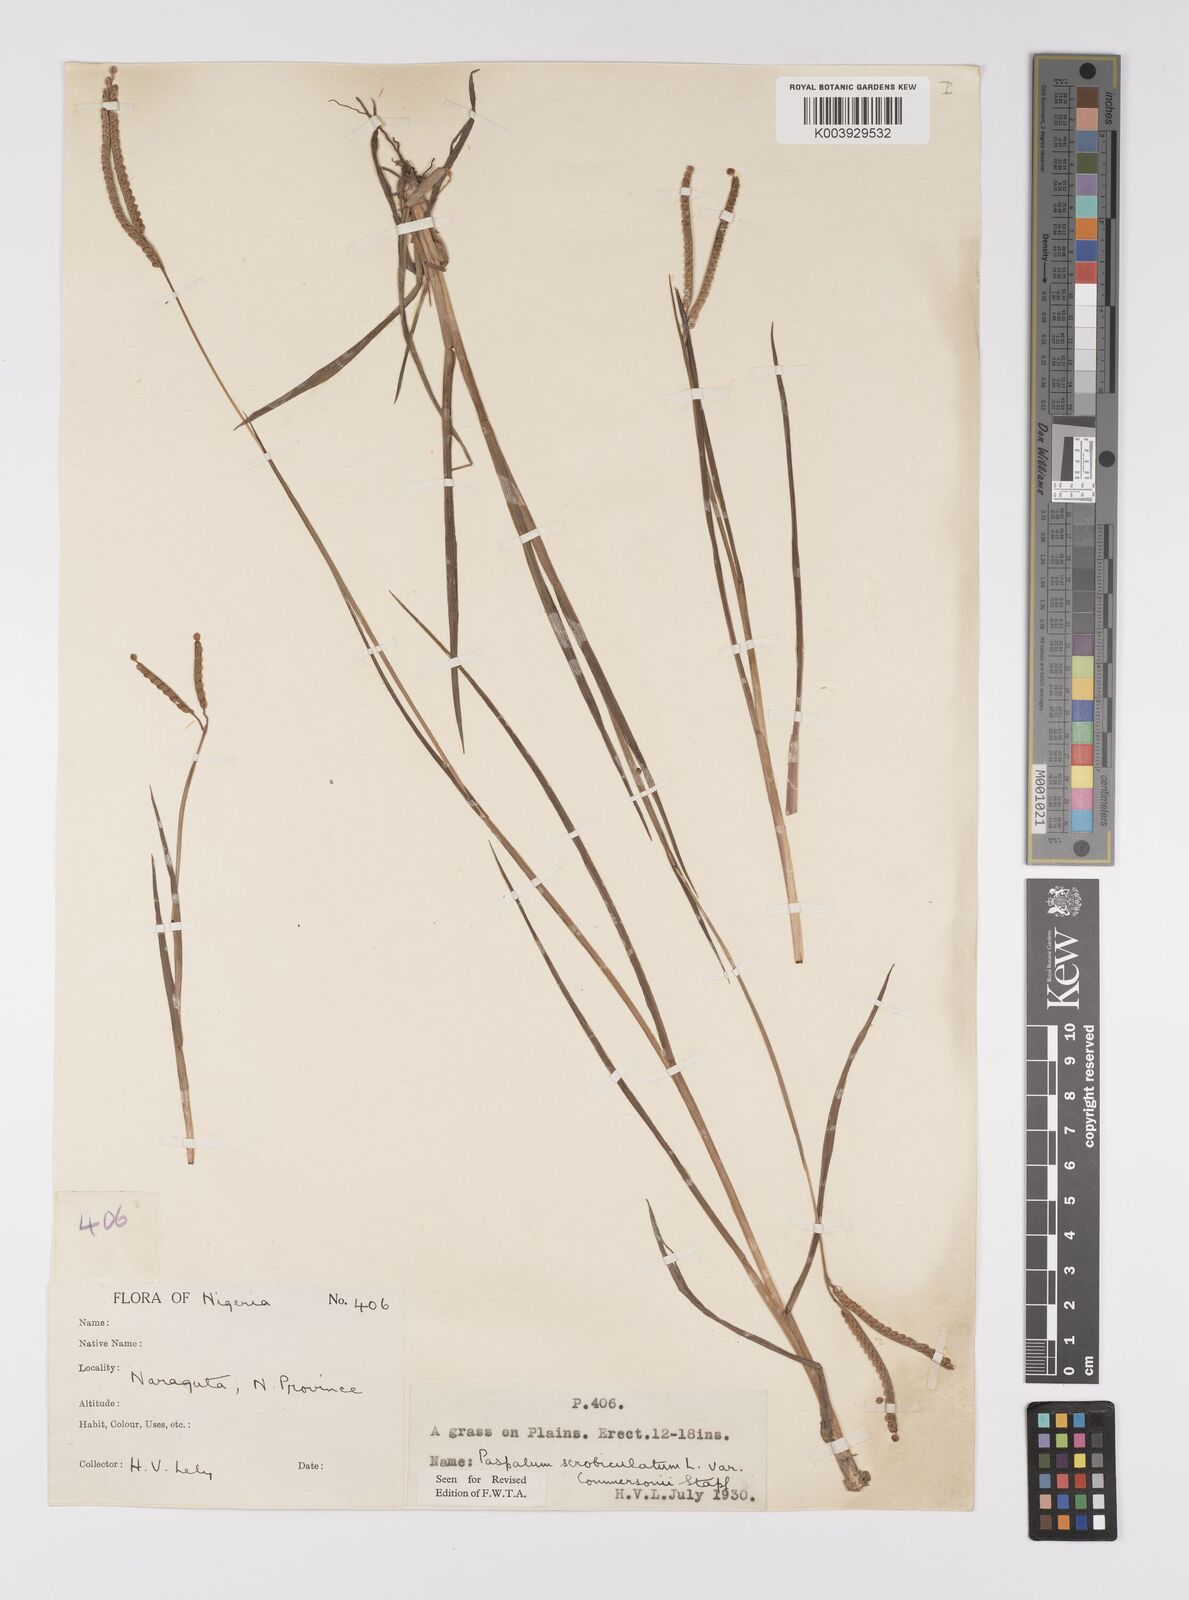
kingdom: Plantae
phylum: Tracheophyta
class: Liliopsida
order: Poales
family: Poaceae
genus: Paspalum
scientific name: Paspalum scrobiculatum
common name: Kodo millet
